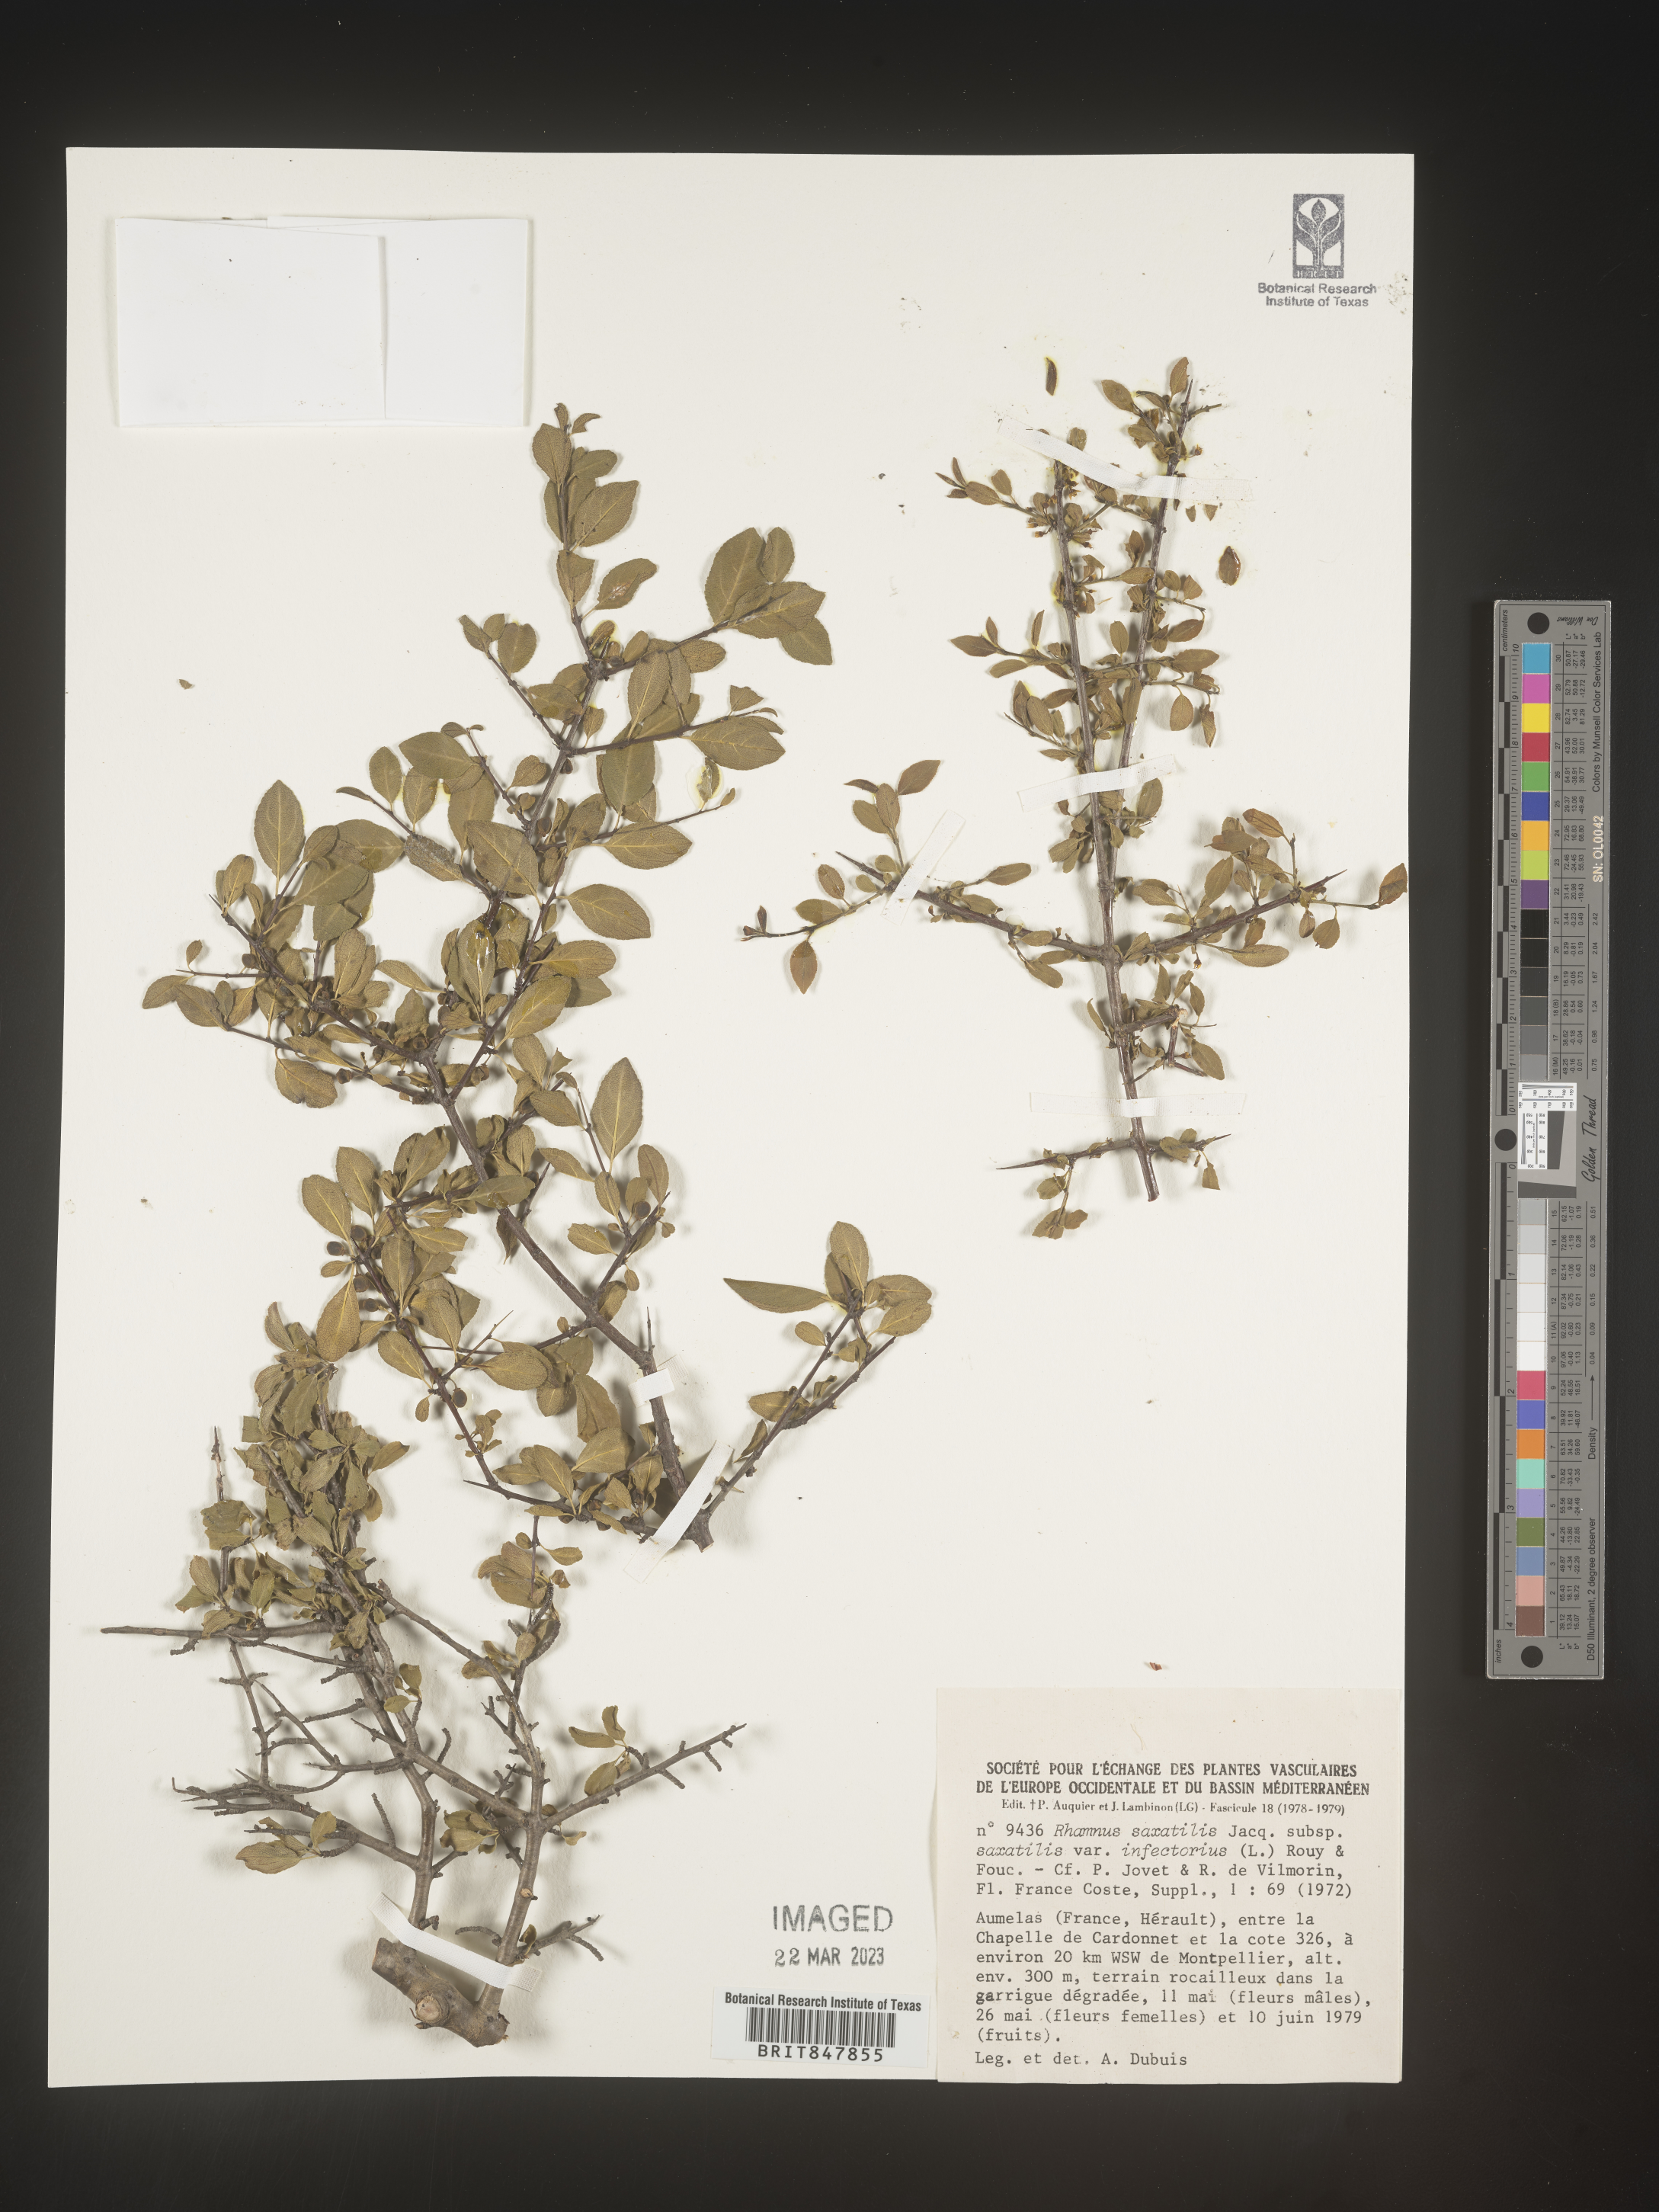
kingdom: Plantae
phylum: Tracheophyta
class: Magnoliopsida
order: Rosales
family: Rhamnaceae
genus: Rhamnus
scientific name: Rhamnus
